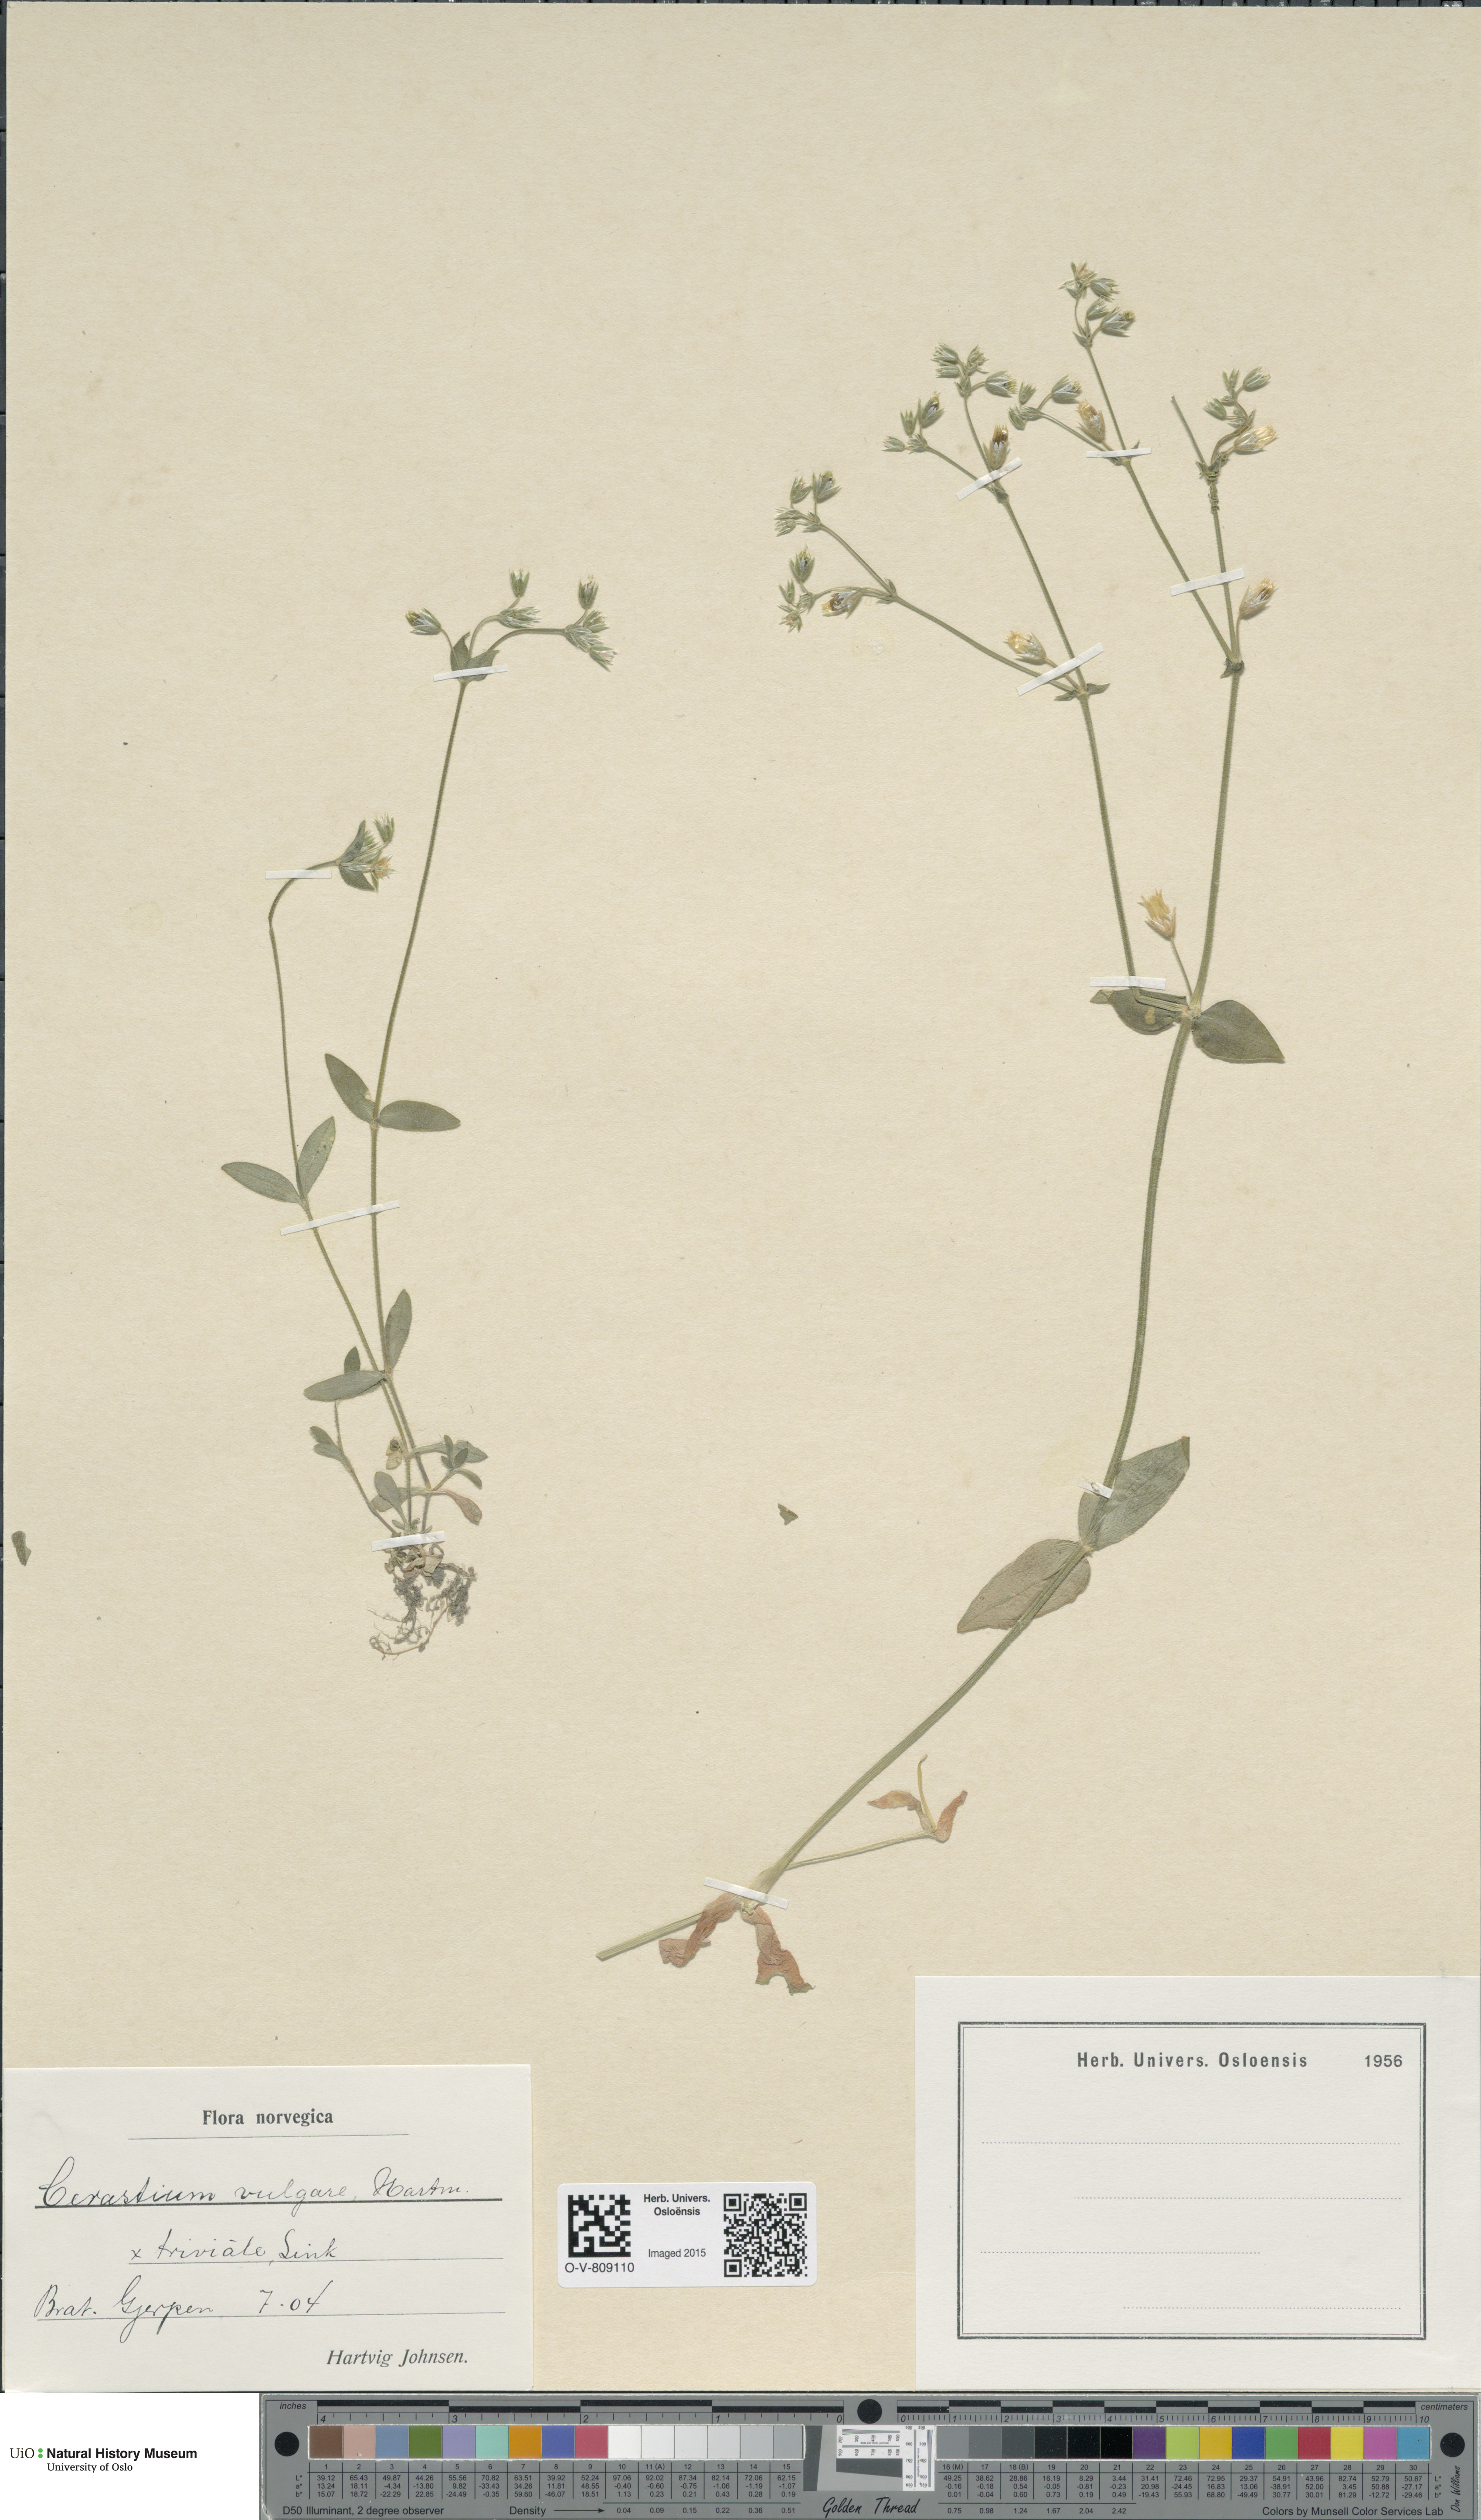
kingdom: Plantae
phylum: Tracheophyta
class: Magnoliopsida
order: Caryophyllales
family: Caryophyllaceae
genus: Cerastium
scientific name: Cerastium holosteoides
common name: Big chickweed
